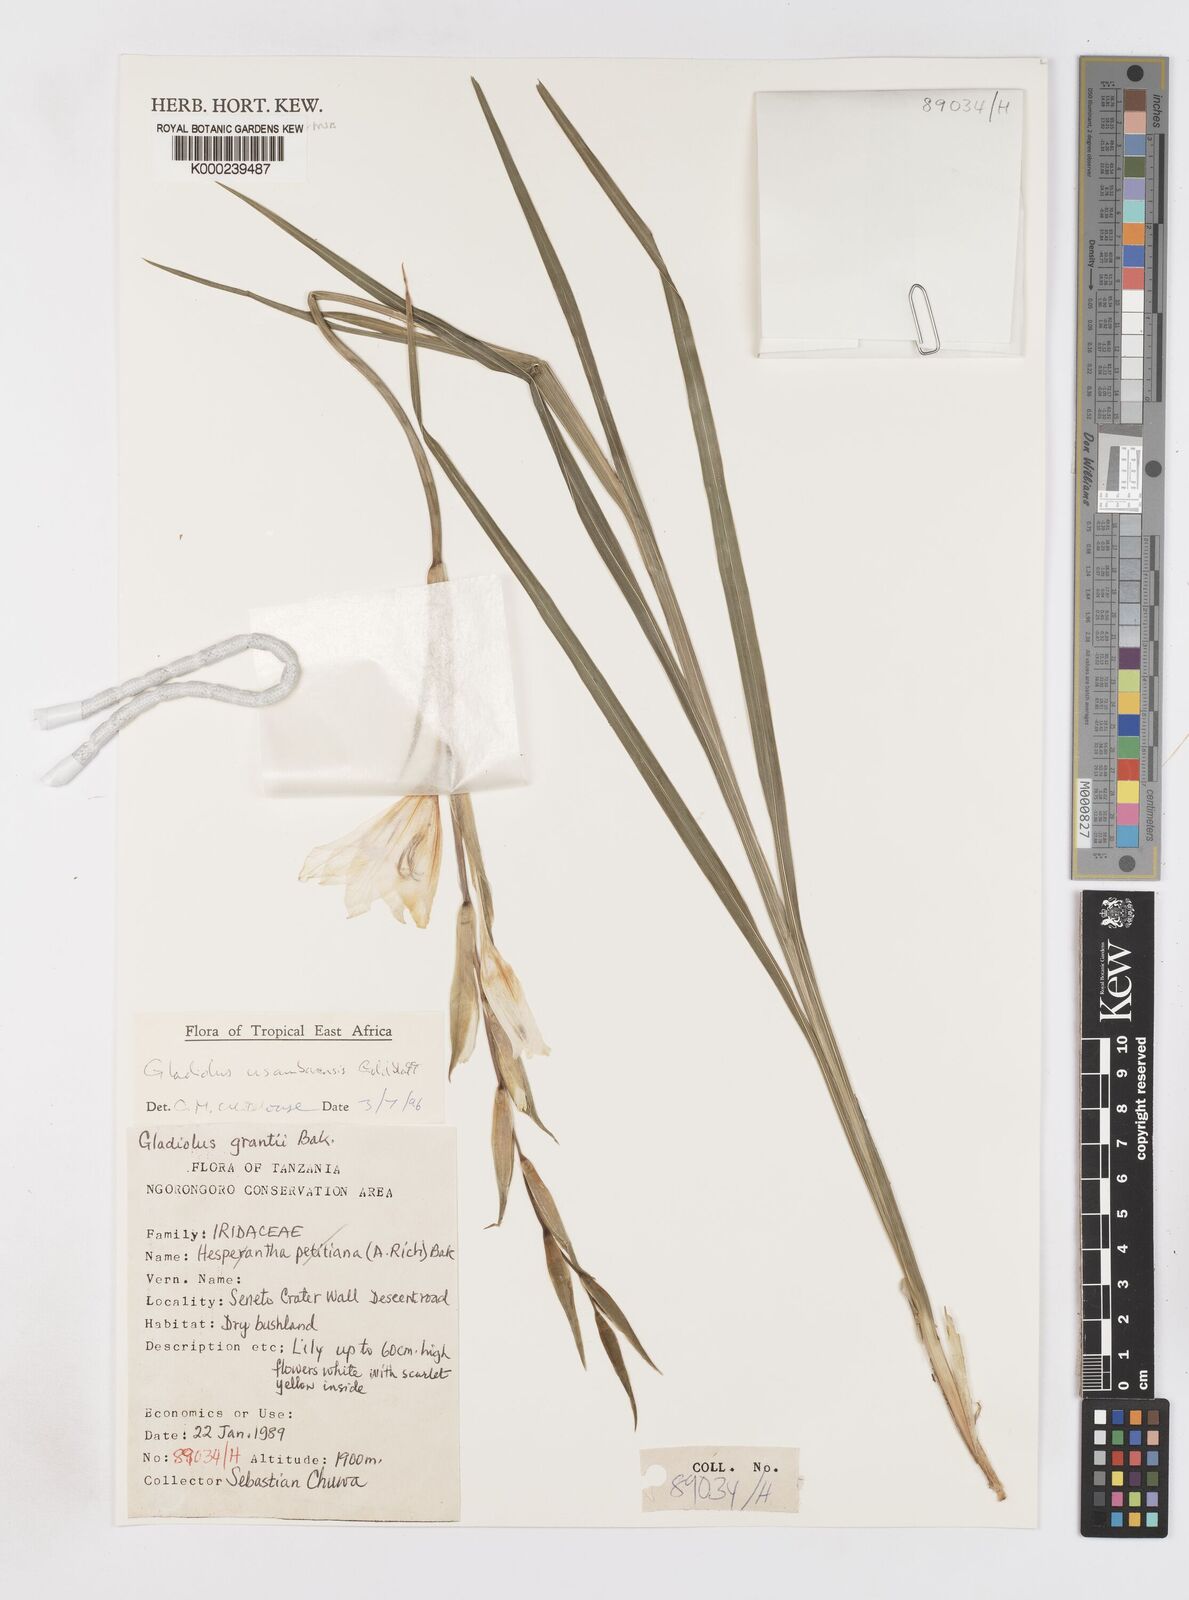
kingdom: Plantae
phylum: Tracheophyta
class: Liliopsida
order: Asparagales
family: Iridaceae
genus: Gladiolus
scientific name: Gladiolus usambarensis
